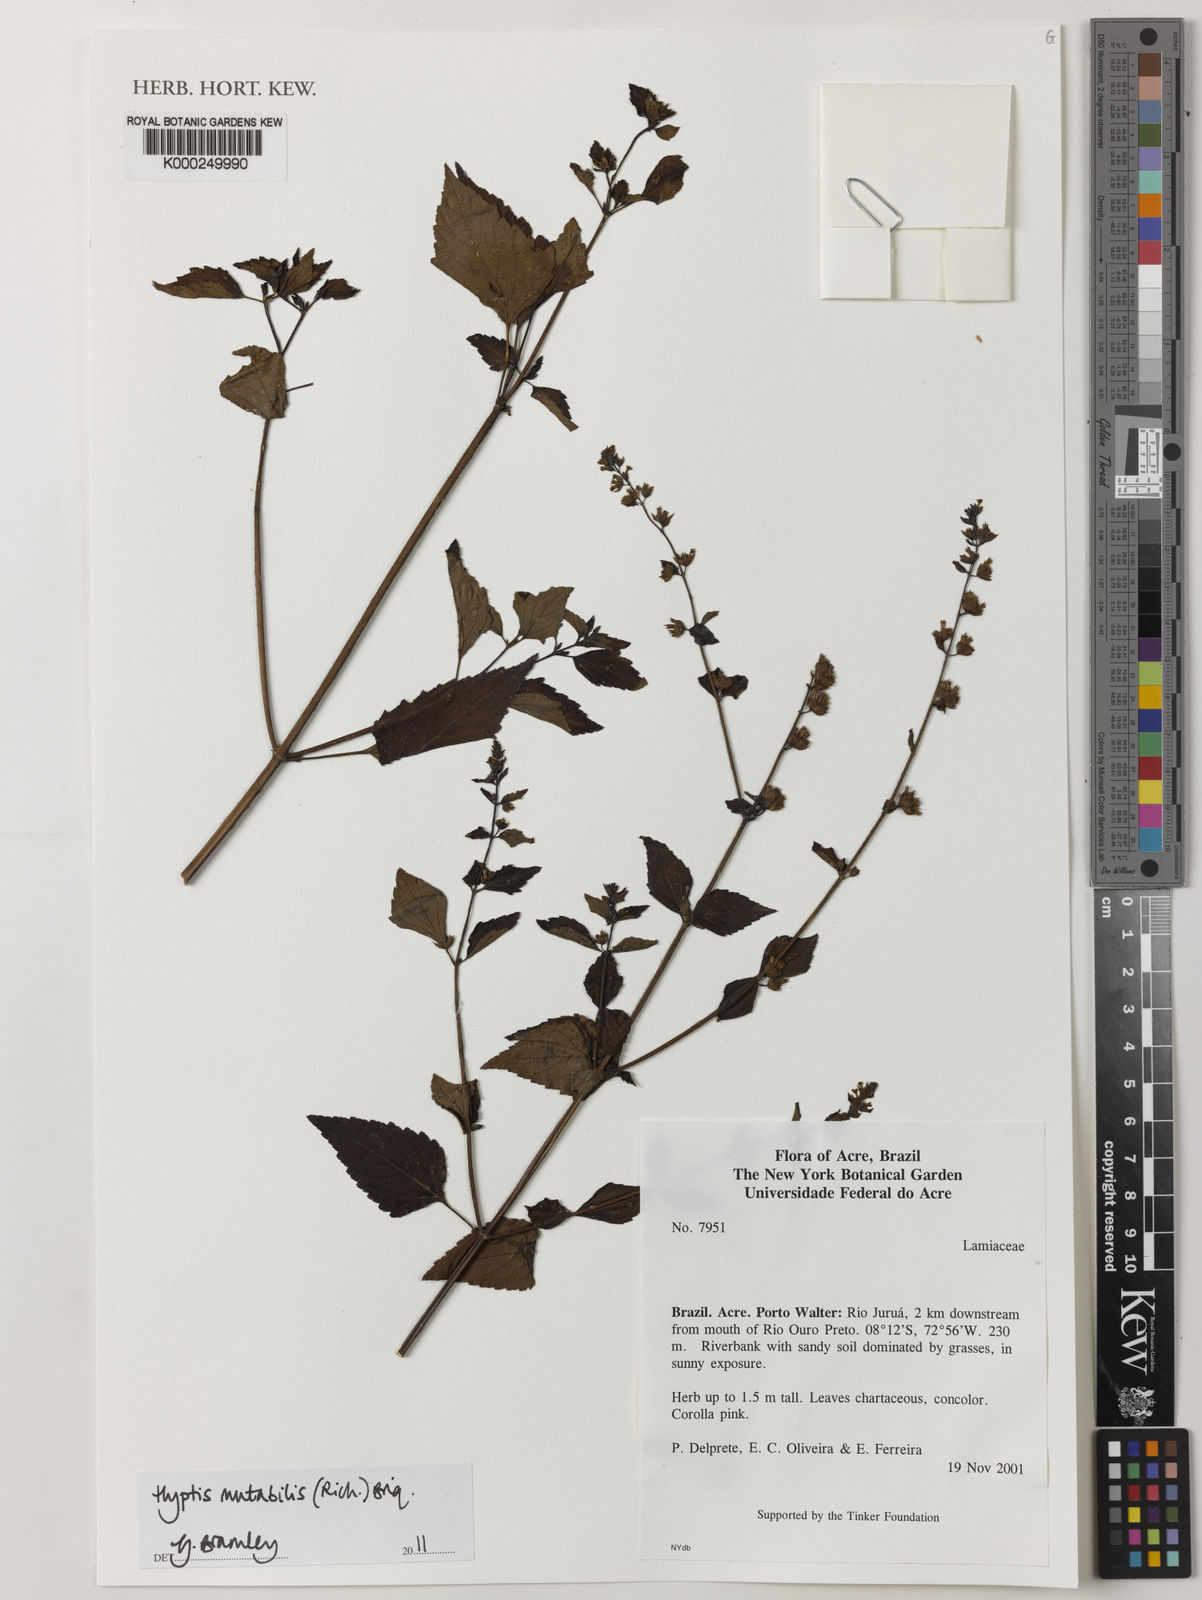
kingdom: Plantae
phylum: Tracheophyta
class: Magnoliopsida
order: Lamiales
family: Lamiaceae
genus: Cantinoa
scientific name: Cantinoa mutabilis
